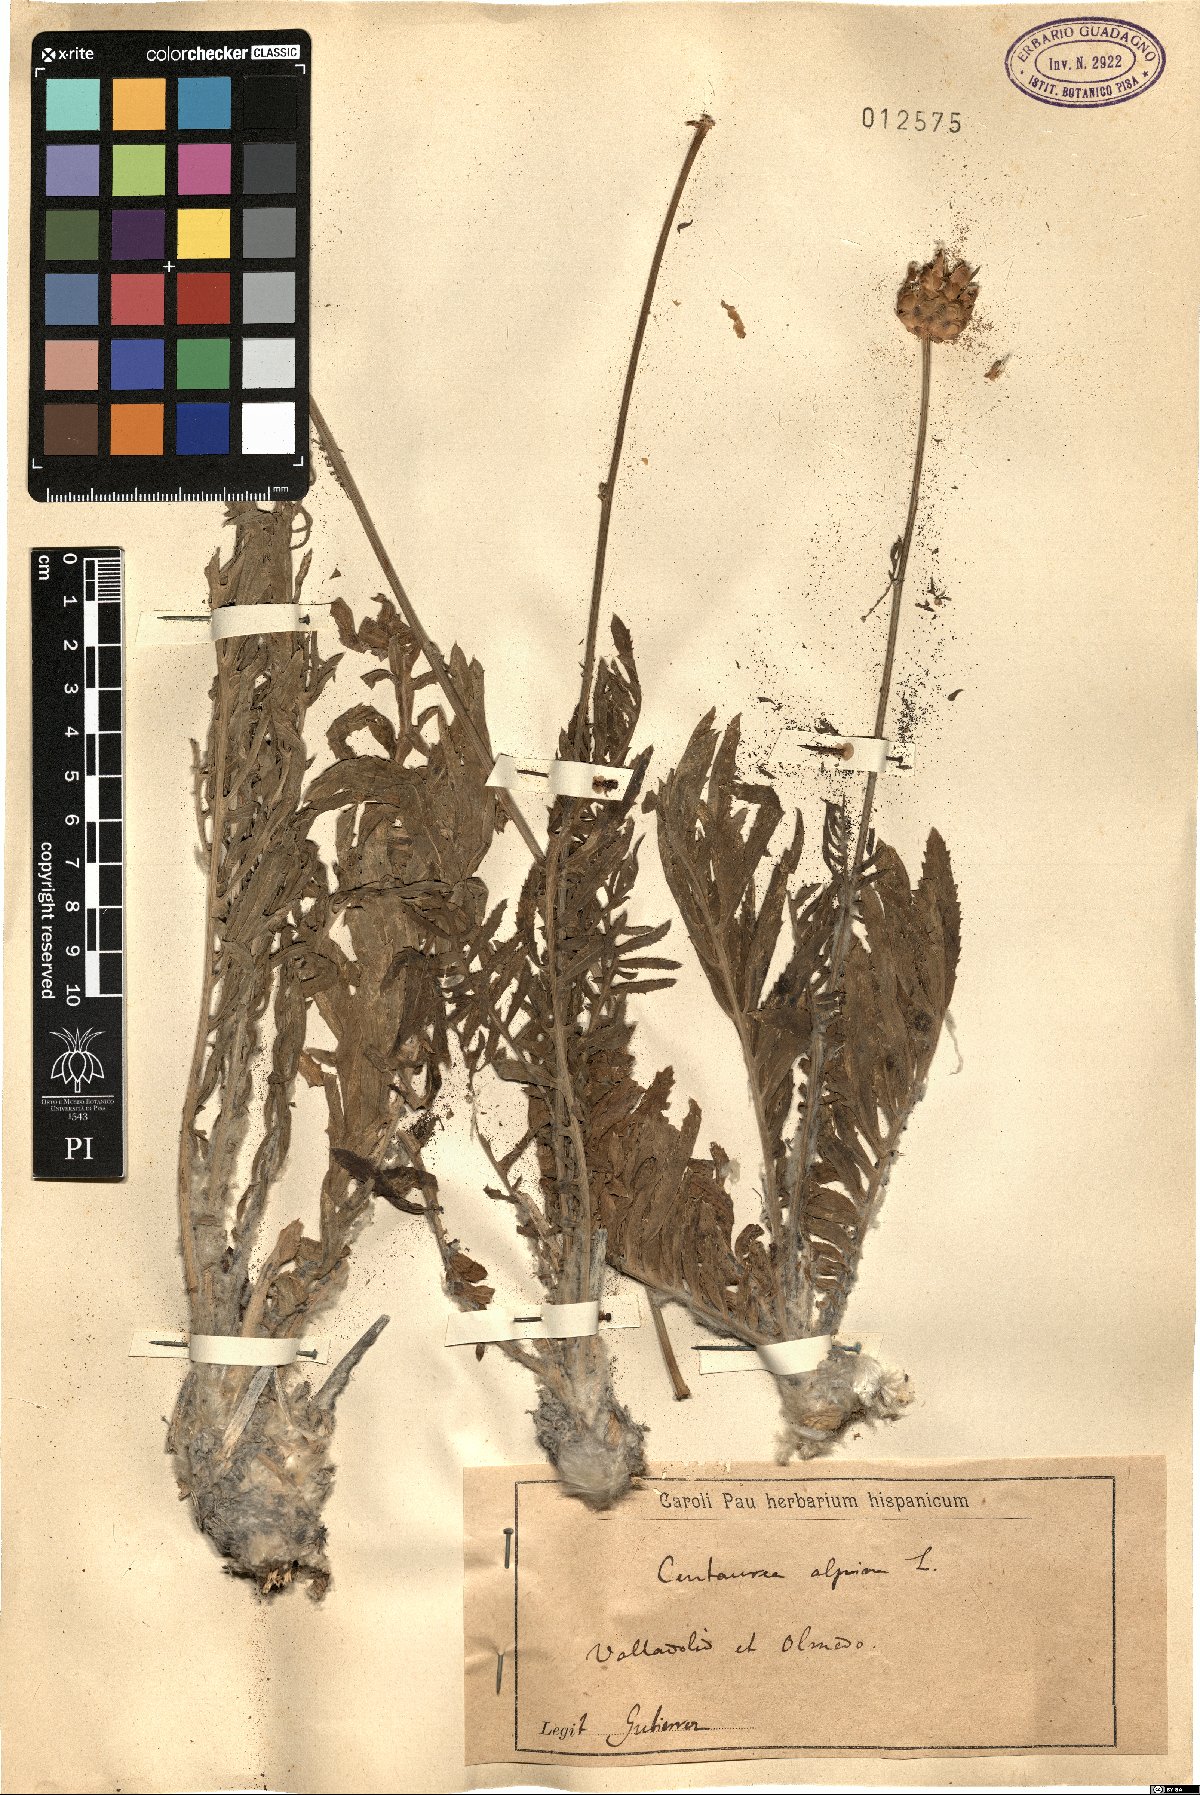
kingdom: Plantae
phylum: Tracheophyta
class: Magnoliopsida
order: Asterales
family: Asteraceae
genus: Rhaponticoides
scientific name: Rhaponticoides alpina
